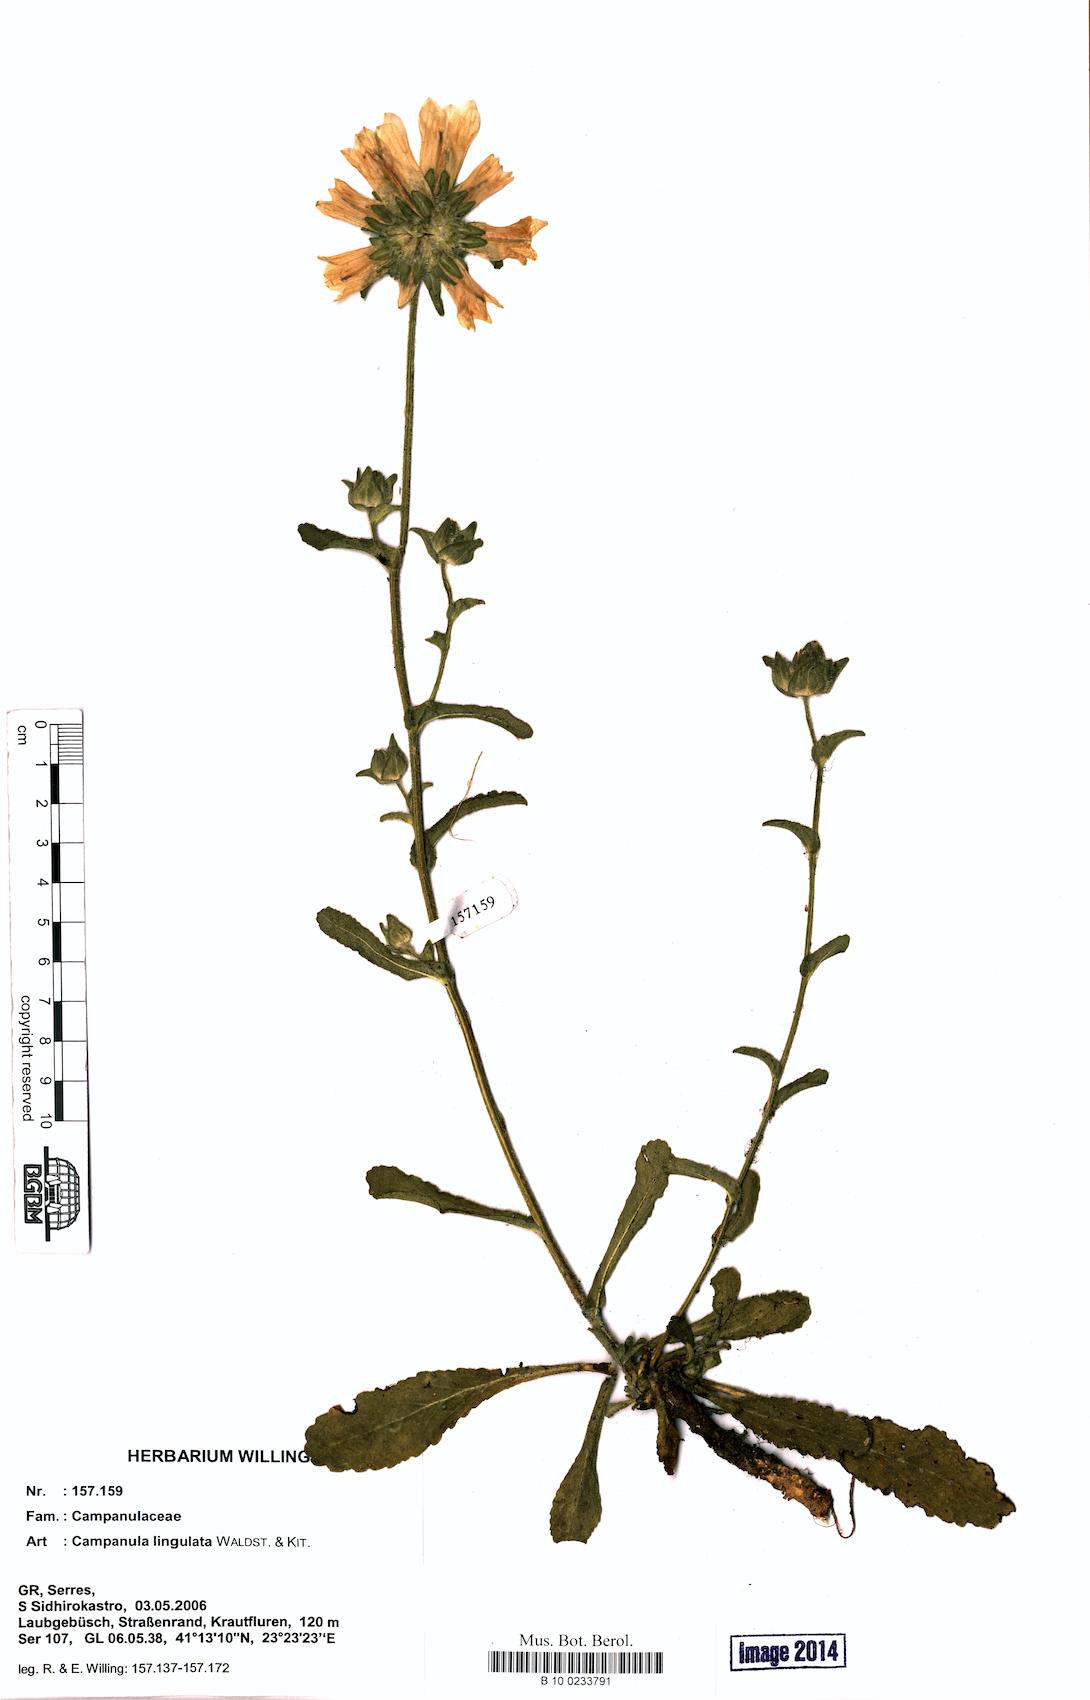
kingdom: Plantae
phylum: Tracheophyta
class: Magnoliopsida
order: Asterales
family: Campanulaceae
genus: Campanula
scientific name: Campanula lingulata
